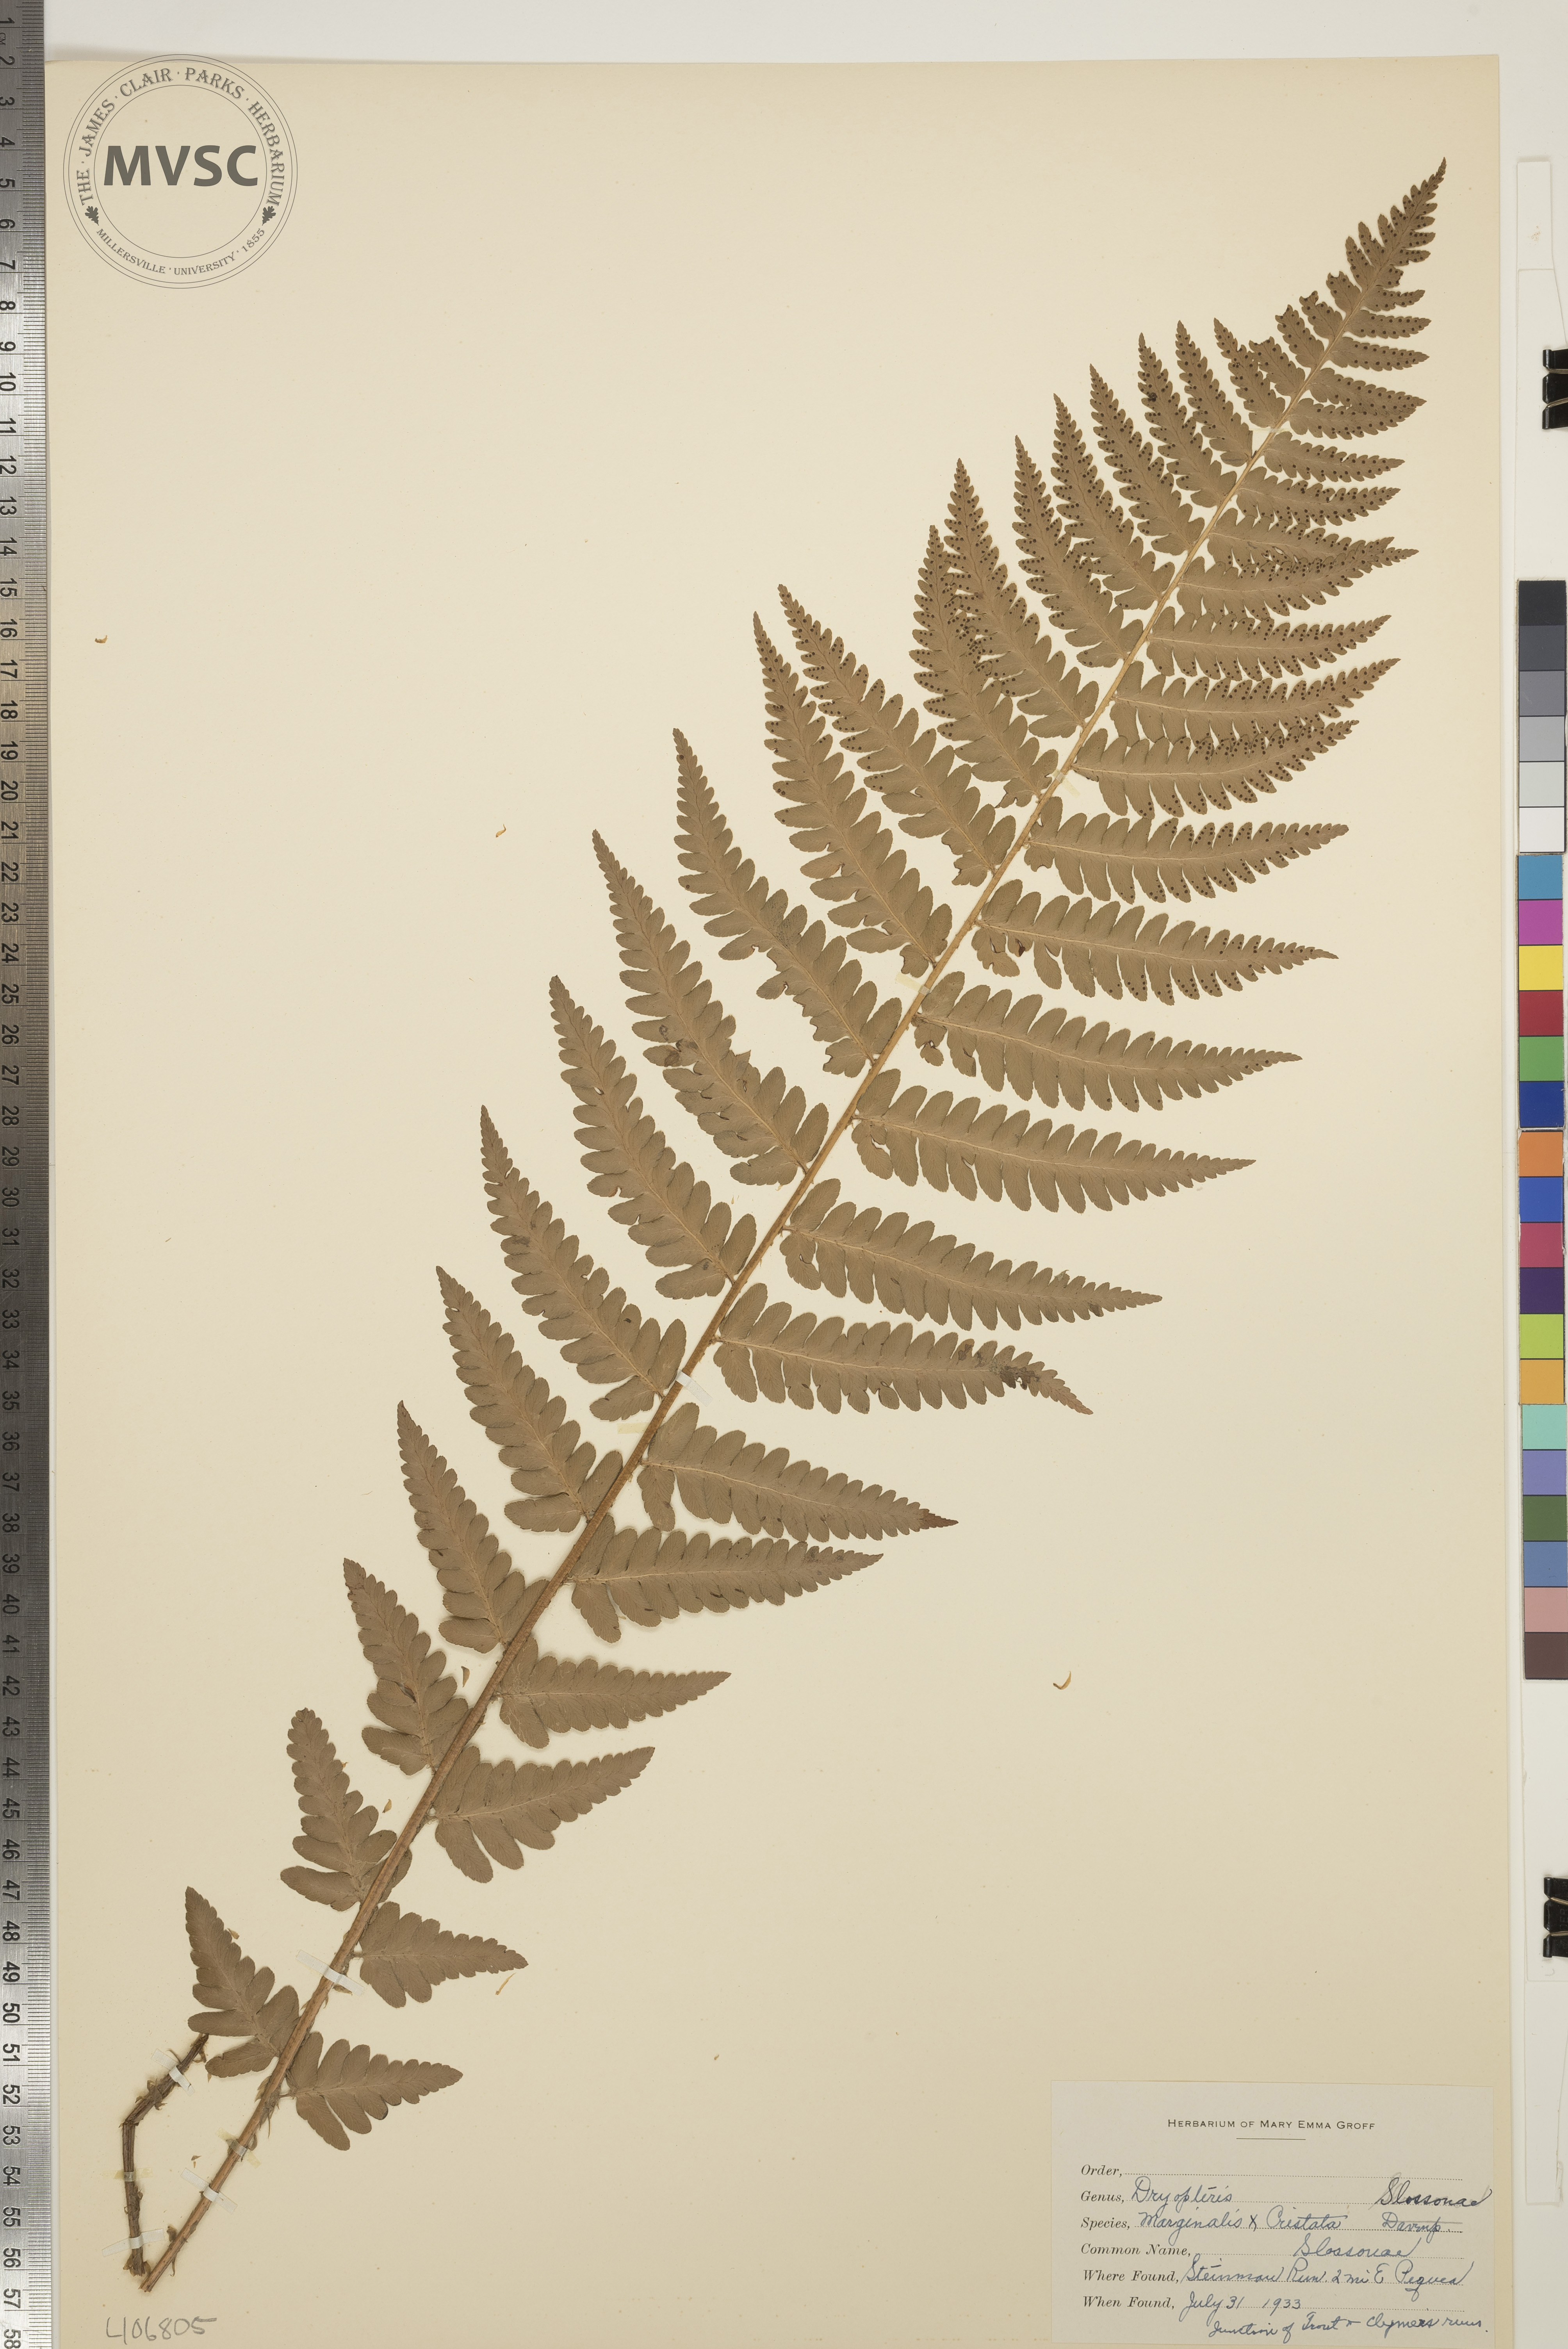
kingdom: Plantae
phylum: Tracheophyta
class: Polypodiopsida
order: Polypodiales
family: Dryopteridaceae
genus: Dryopteris
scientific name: Dryopteris
